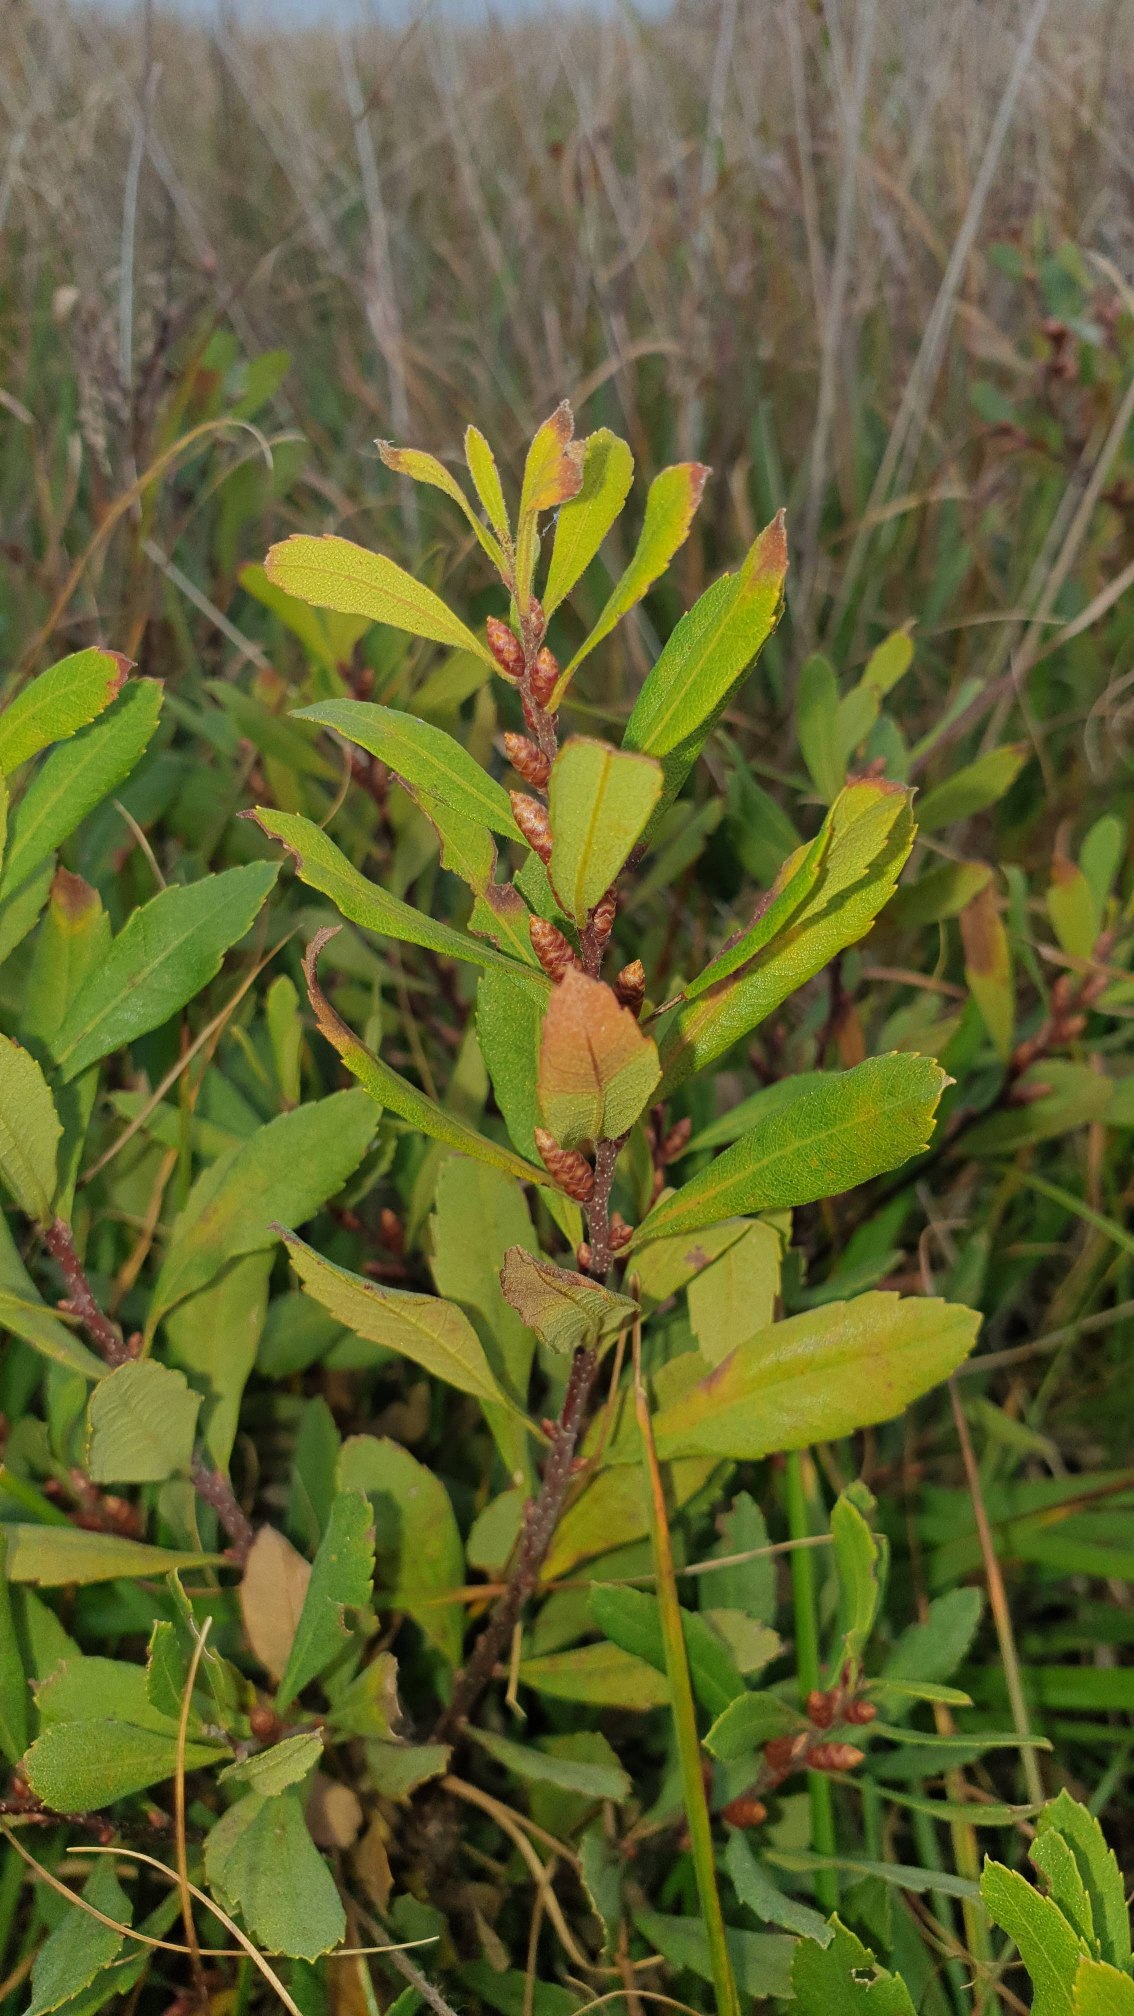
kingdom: Plantae
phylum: Tracheophyta
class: Magnoliopsida
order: Fagales
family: Myricaceae
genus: Myrica
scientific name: Myrica gale
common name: Pors
